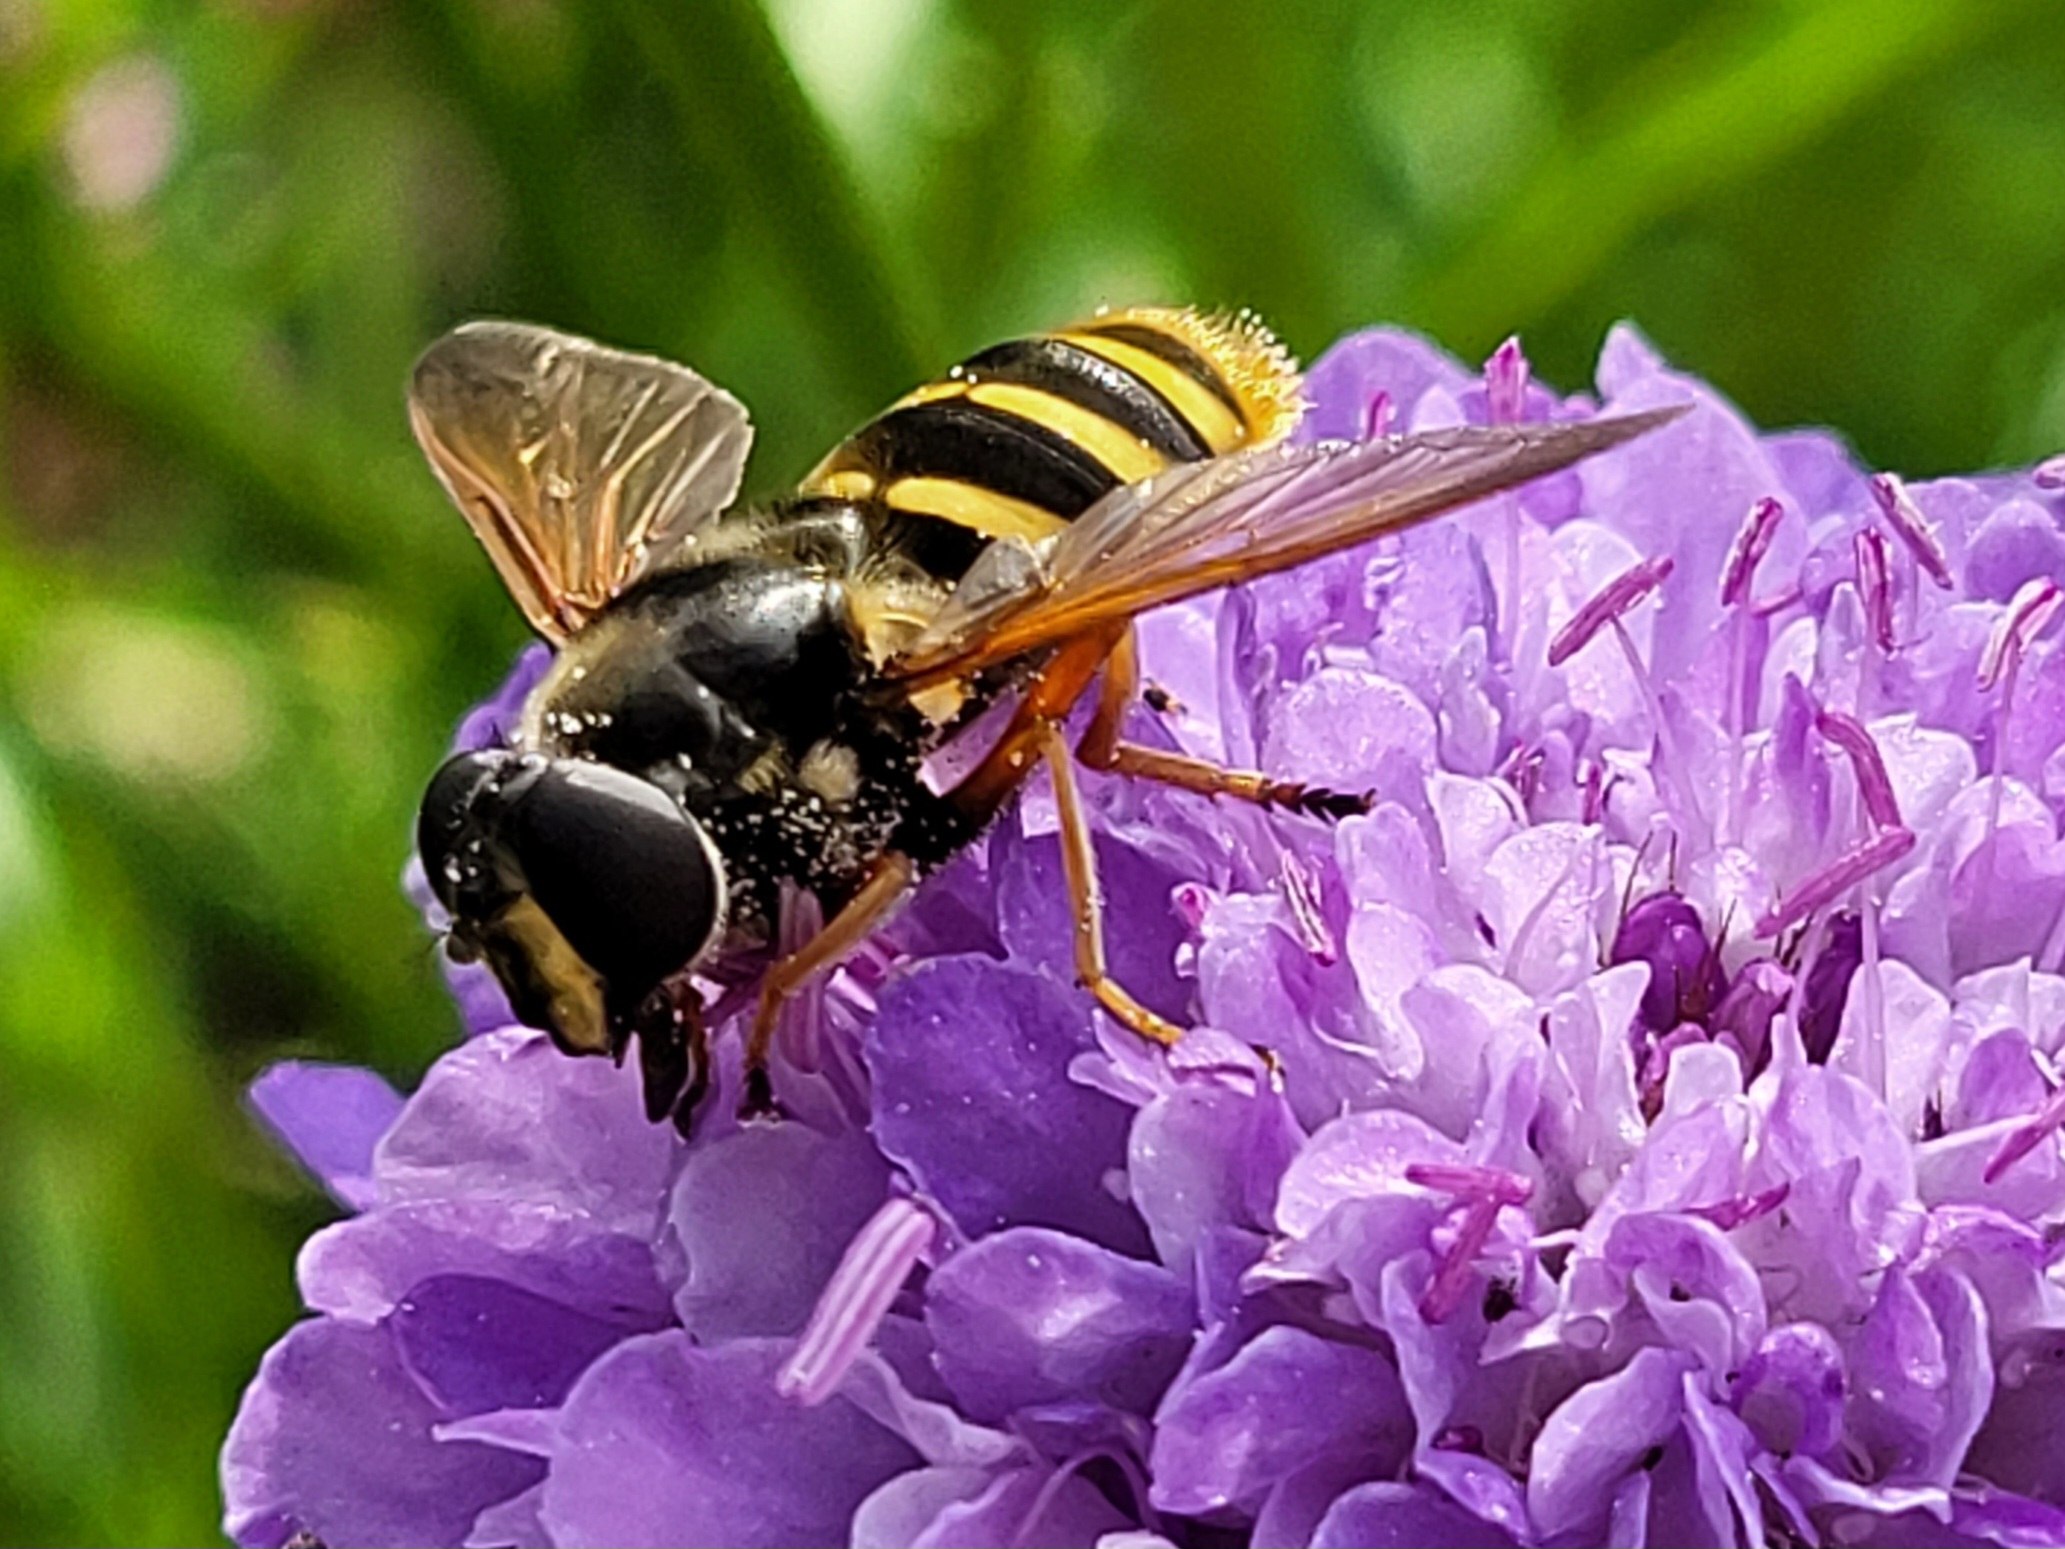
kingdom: Animalia
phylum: Arthropoda
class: Insecta
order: Diptera
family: Syrphidae
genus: Sericomyia
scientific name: Sericomyia silentis
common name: Tørve-silkesvirreflue
